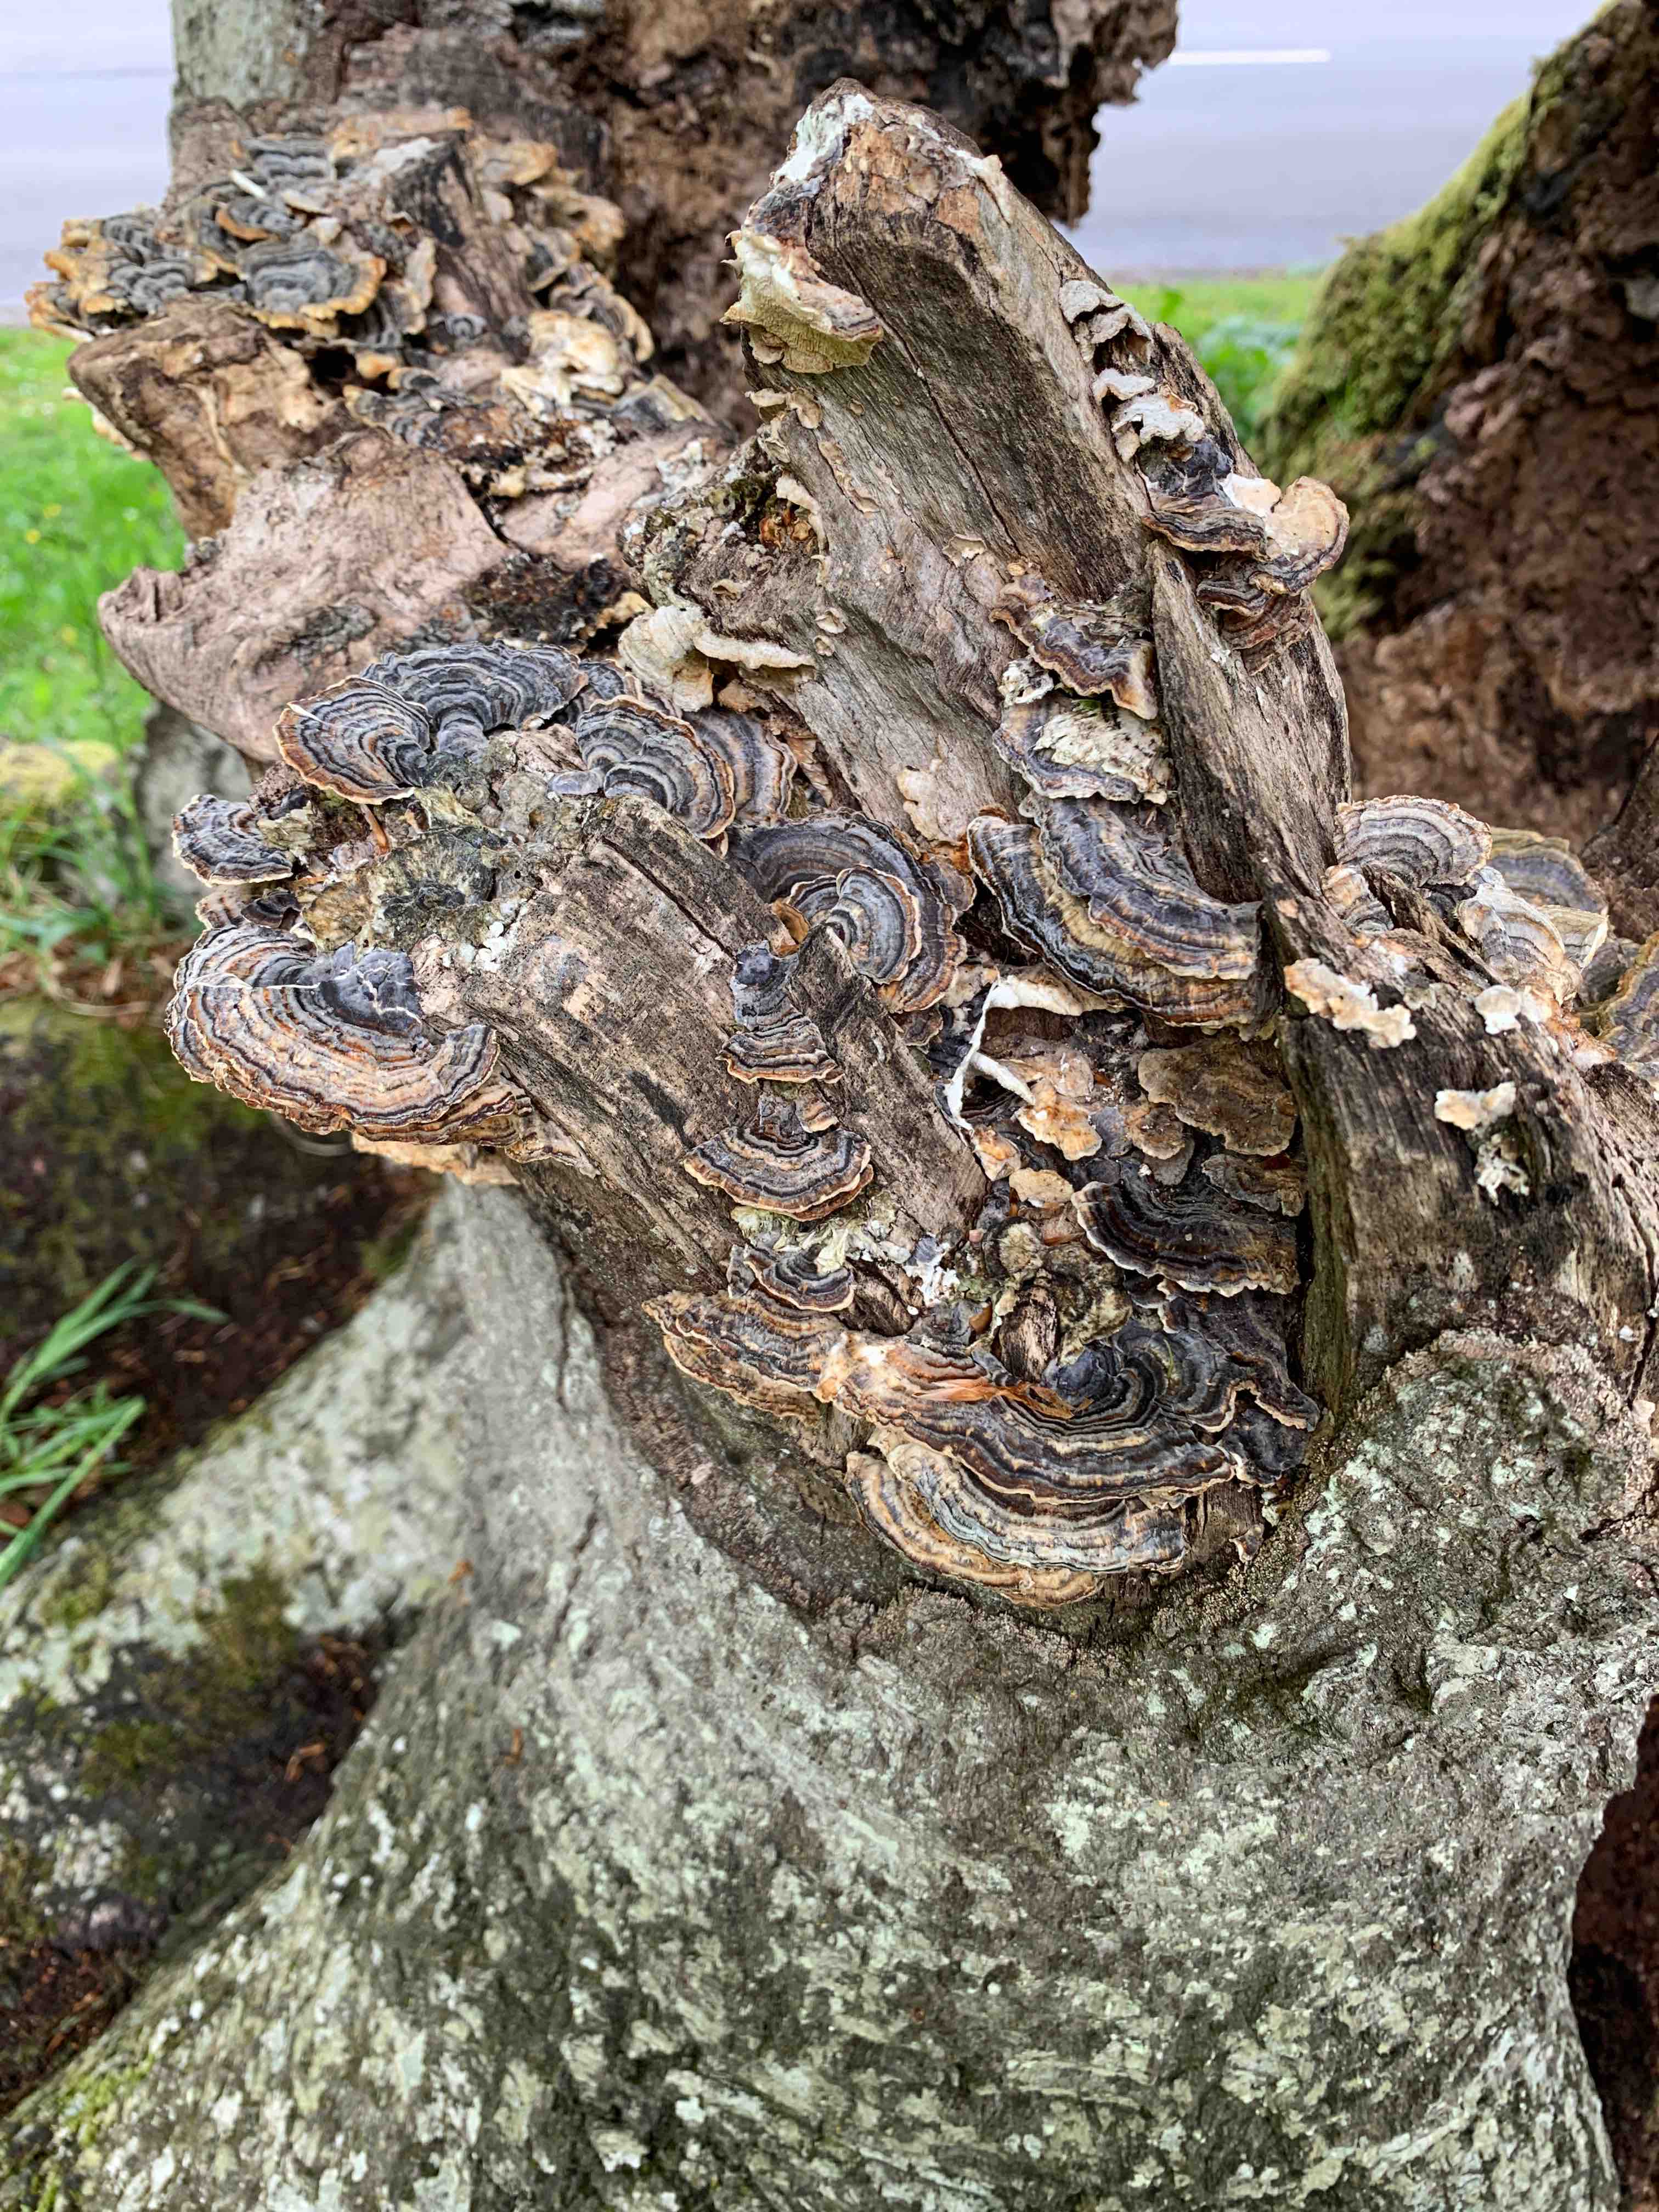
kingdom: Fungi
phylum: Basidiomycota
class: Agaricomycetes
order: Polyporales
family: Polyporaceae
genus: Trametes
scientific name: Trametes versicolor
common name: broget læderporesvamp
